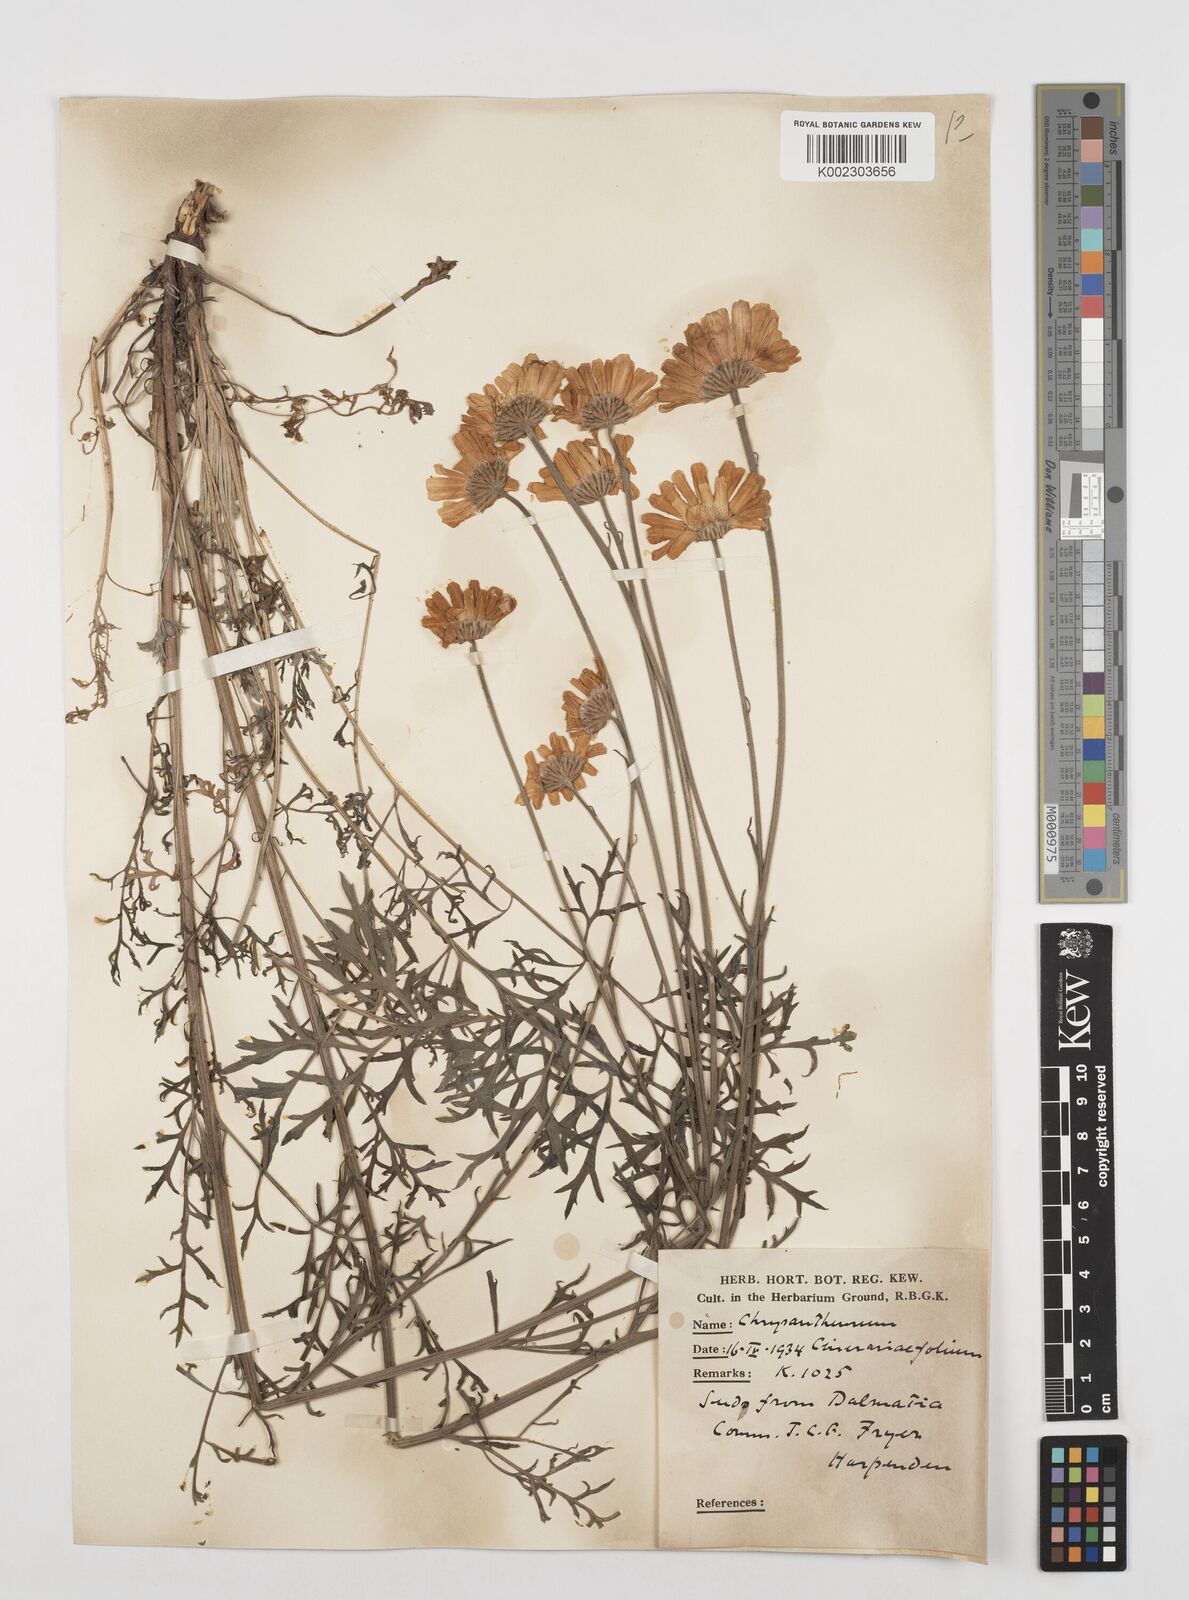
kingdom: Plantae
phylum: Tracheophyta
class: Magnoliopsida
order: Asterales
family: Asteraceae
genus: Tanacetum
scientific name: Tanacetum cinerariifolium
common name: Dalmatian pyrethrum
